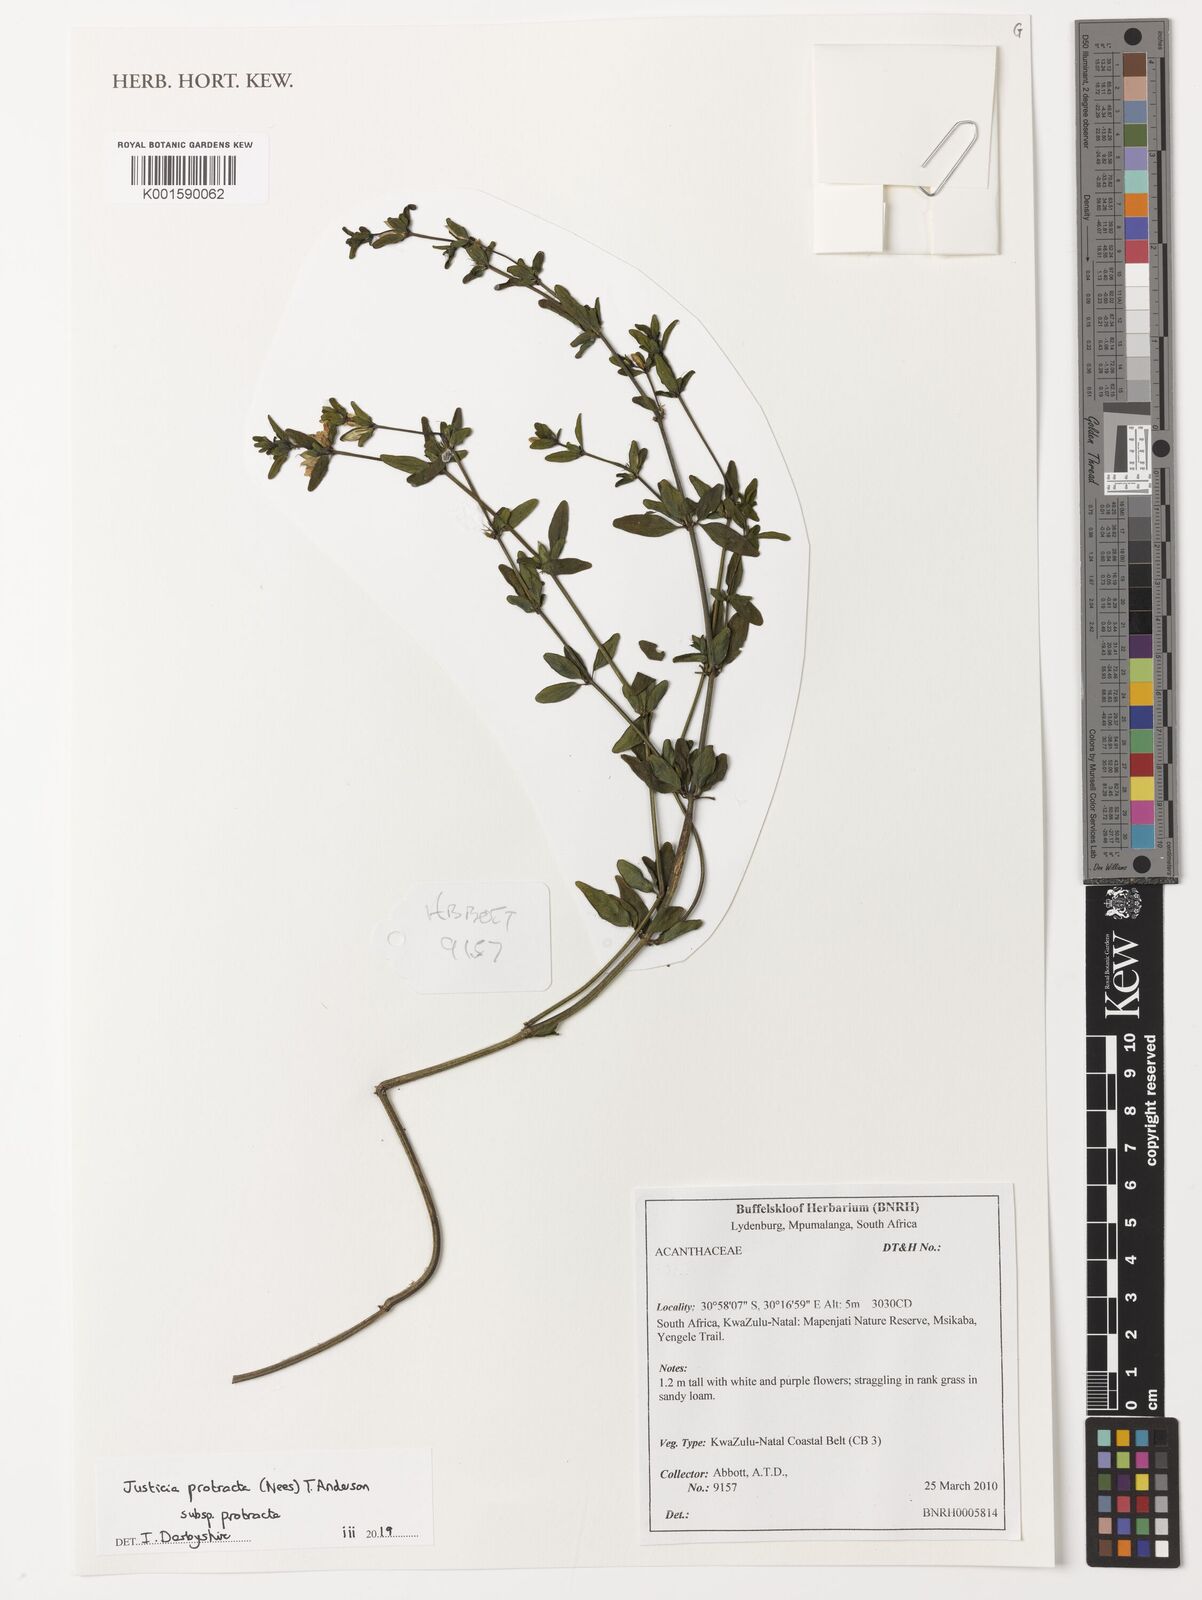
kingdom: Plantae
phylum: Tracheophyta
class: Magnoliopsida
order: Lamiales
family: Acanthaceae
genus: Justicia
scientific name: Justicia protracta
